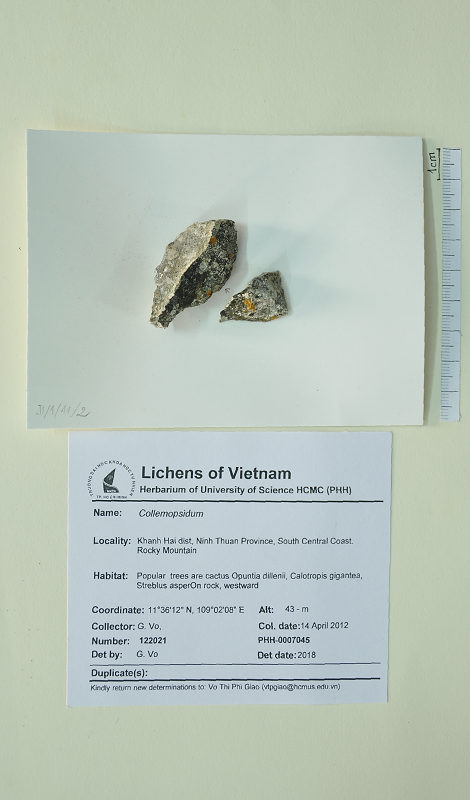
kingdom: Fungi
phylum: Ascomycota
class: Dothideomycetes
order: Collemopsidiales
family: Xanthopyreniaceae
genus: Collemopsidium
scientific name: Collemopsidium
